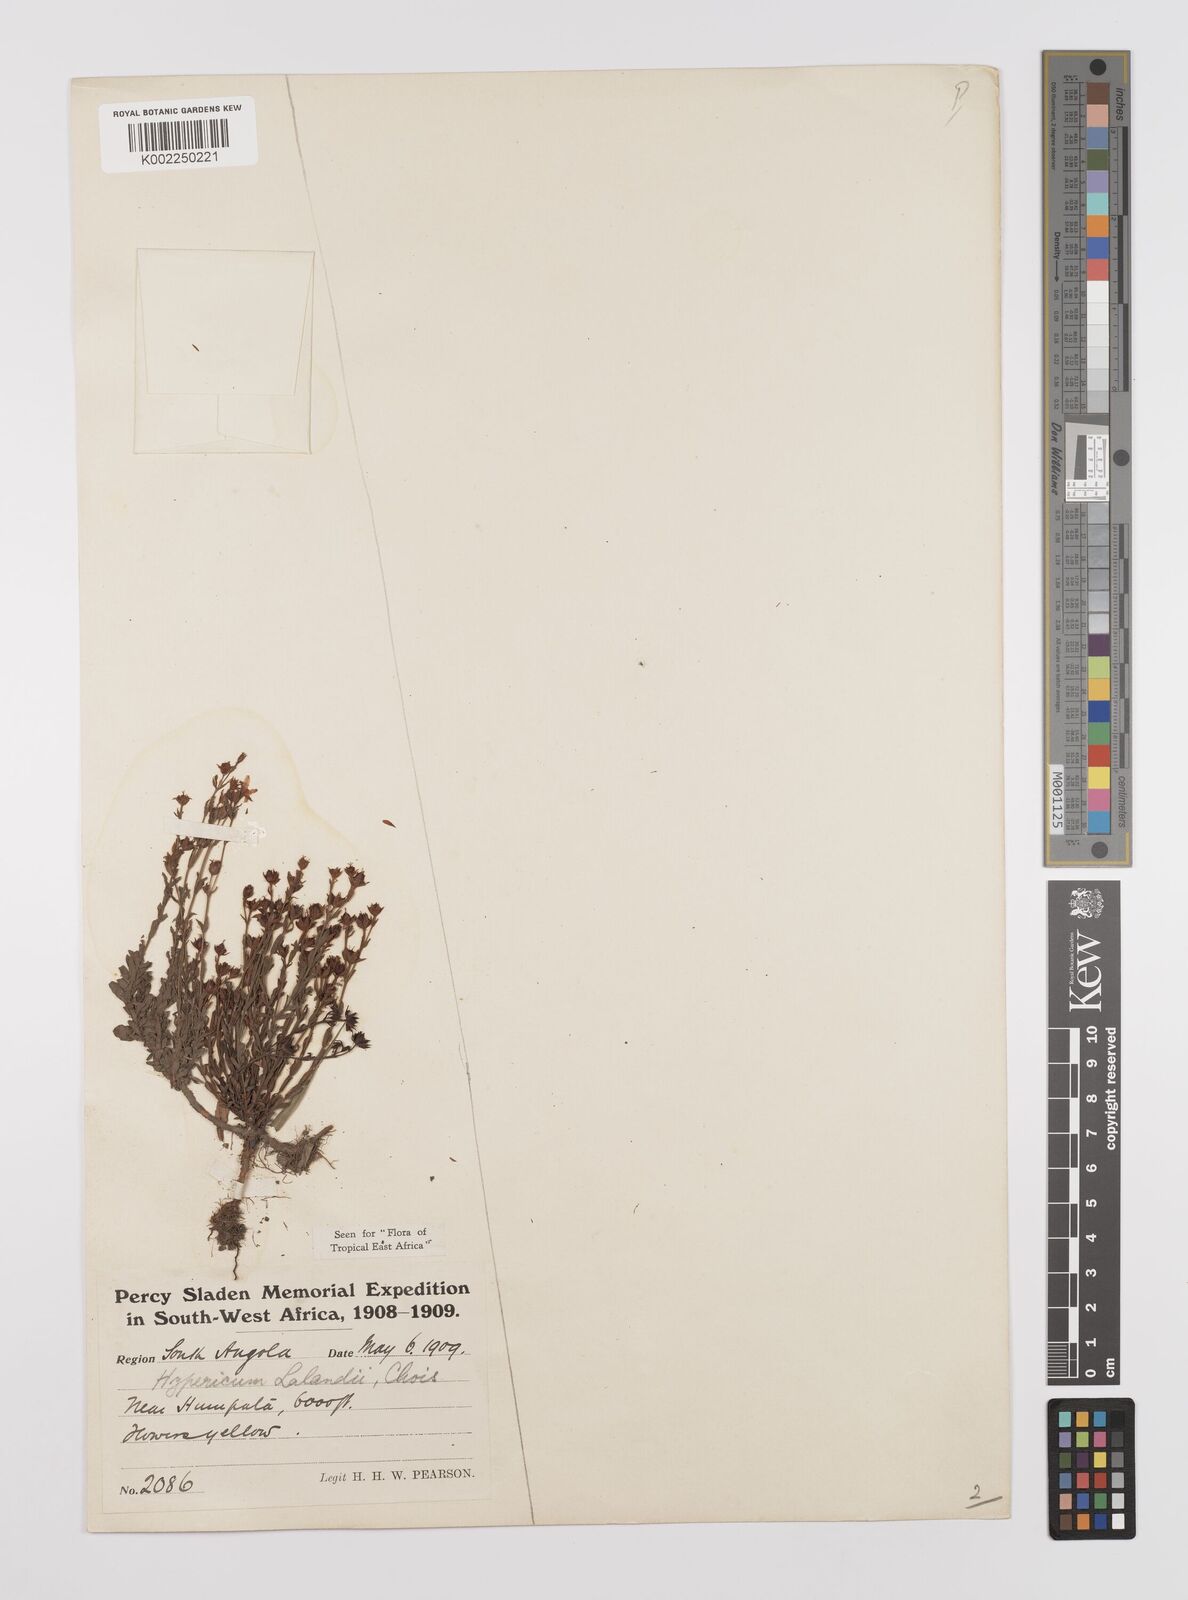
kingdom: Plantae
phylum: Tracheophyta
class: Magnoliopsida
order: Malpighiales
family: Hypericaceae
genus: Hypericum
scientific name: Hypericum lalandii
